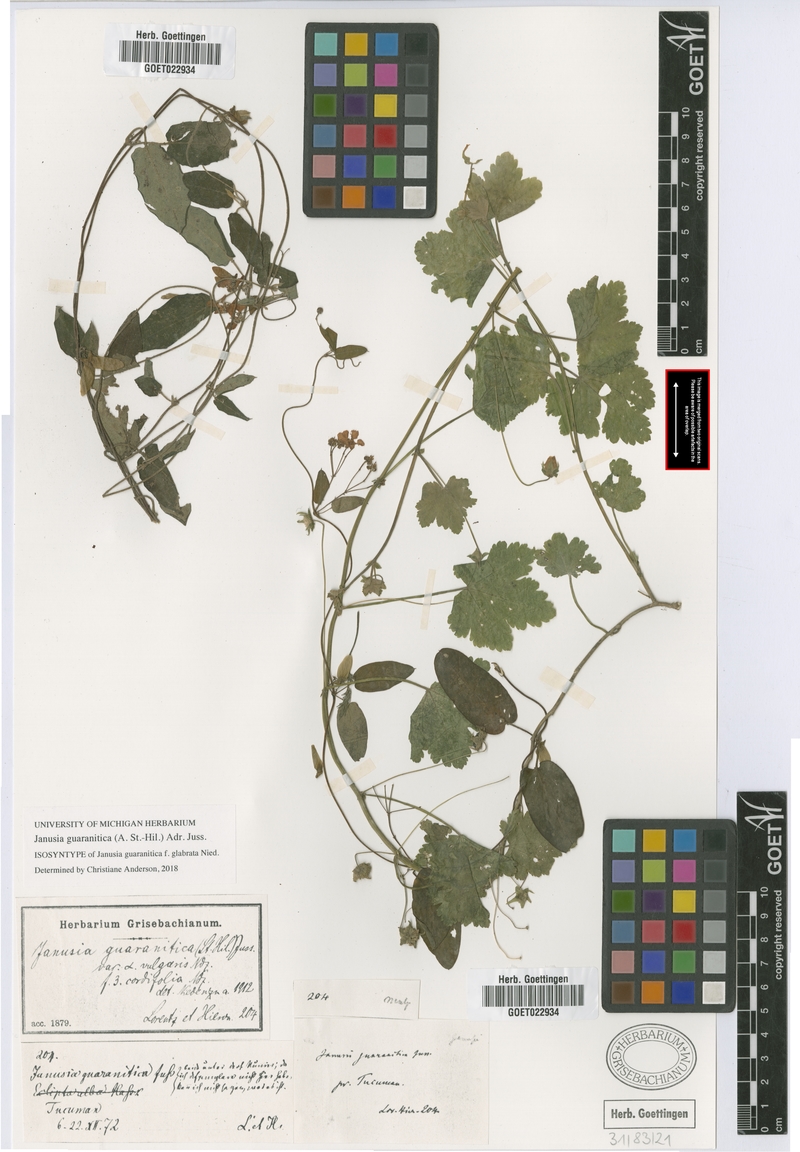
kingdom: Plantae
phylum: Tracheophyta
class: Magnoliopsida
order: Malpighiales
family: Malpighiaceae
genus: Janusia
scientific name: Janusia guaranitica
